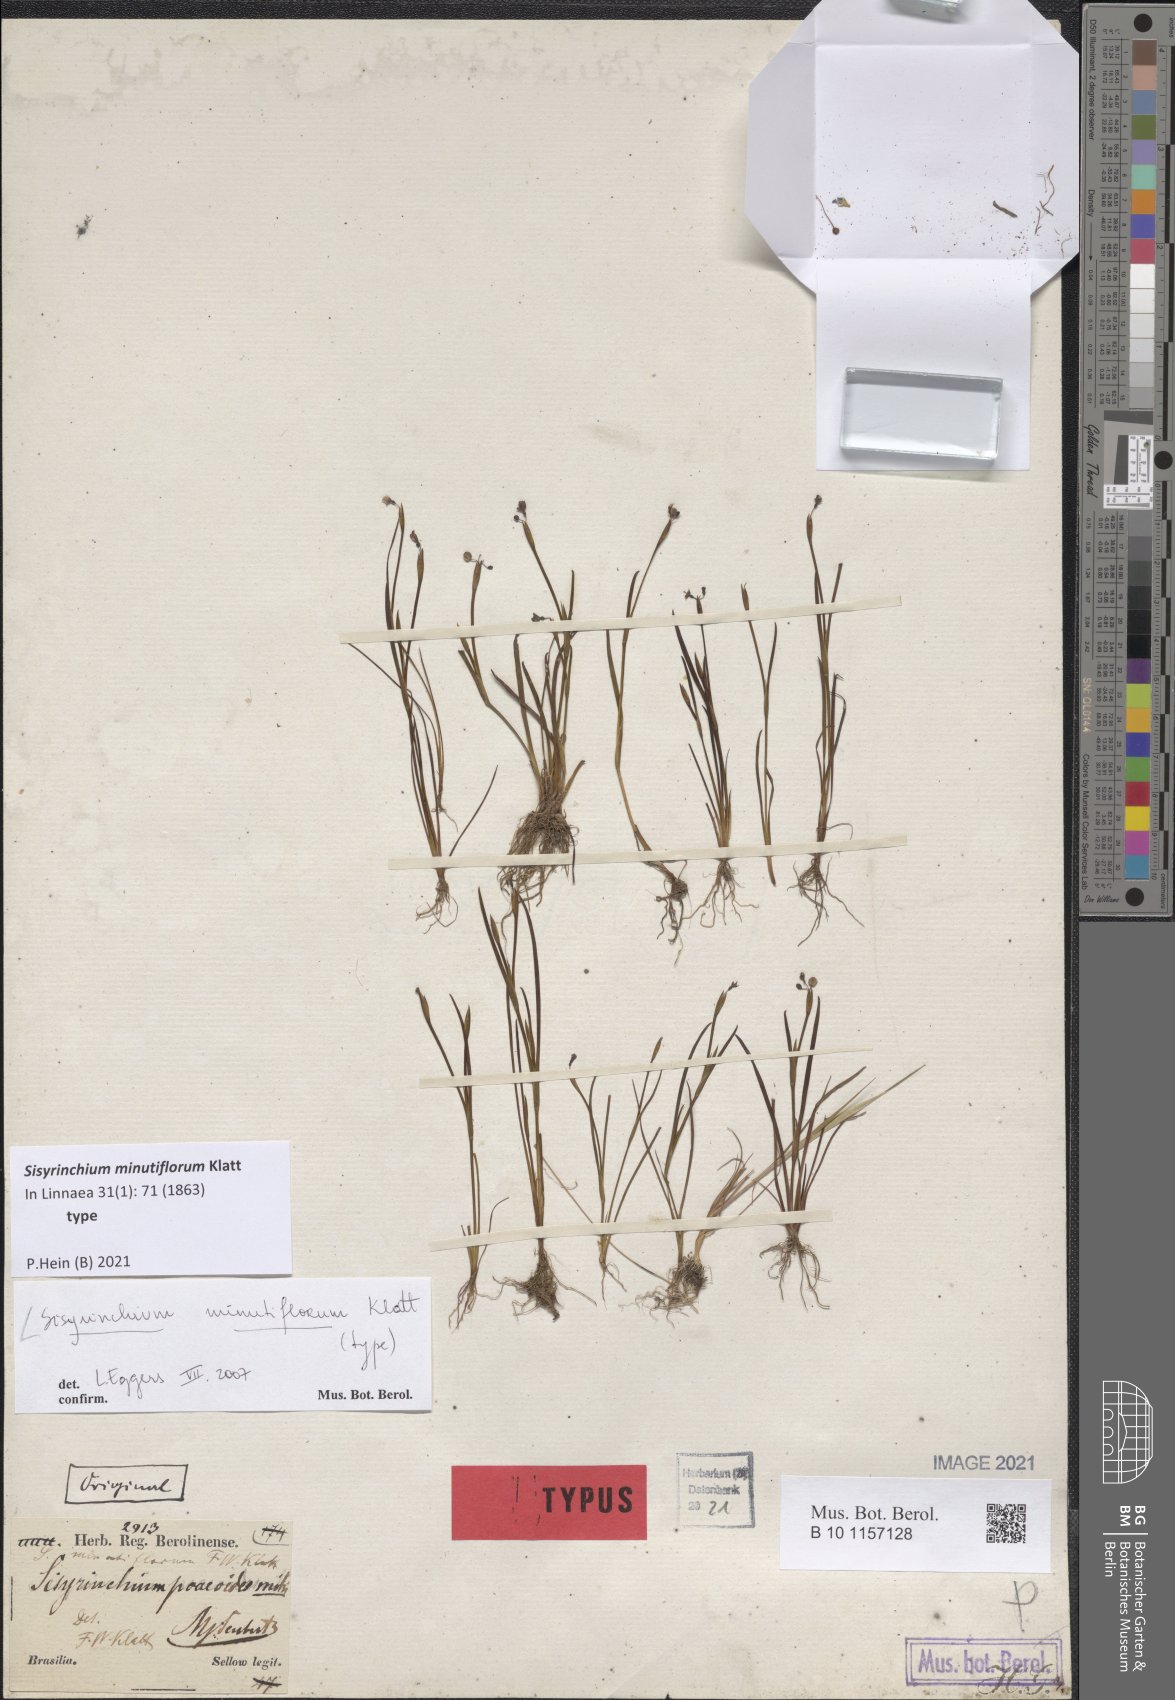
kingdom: Plantae
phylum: Tracheophyta
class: Liliopsida
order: Asparagales
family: Iridaceae
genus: Sisyrinchium
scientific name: Sisyrinchium minutiflorum
